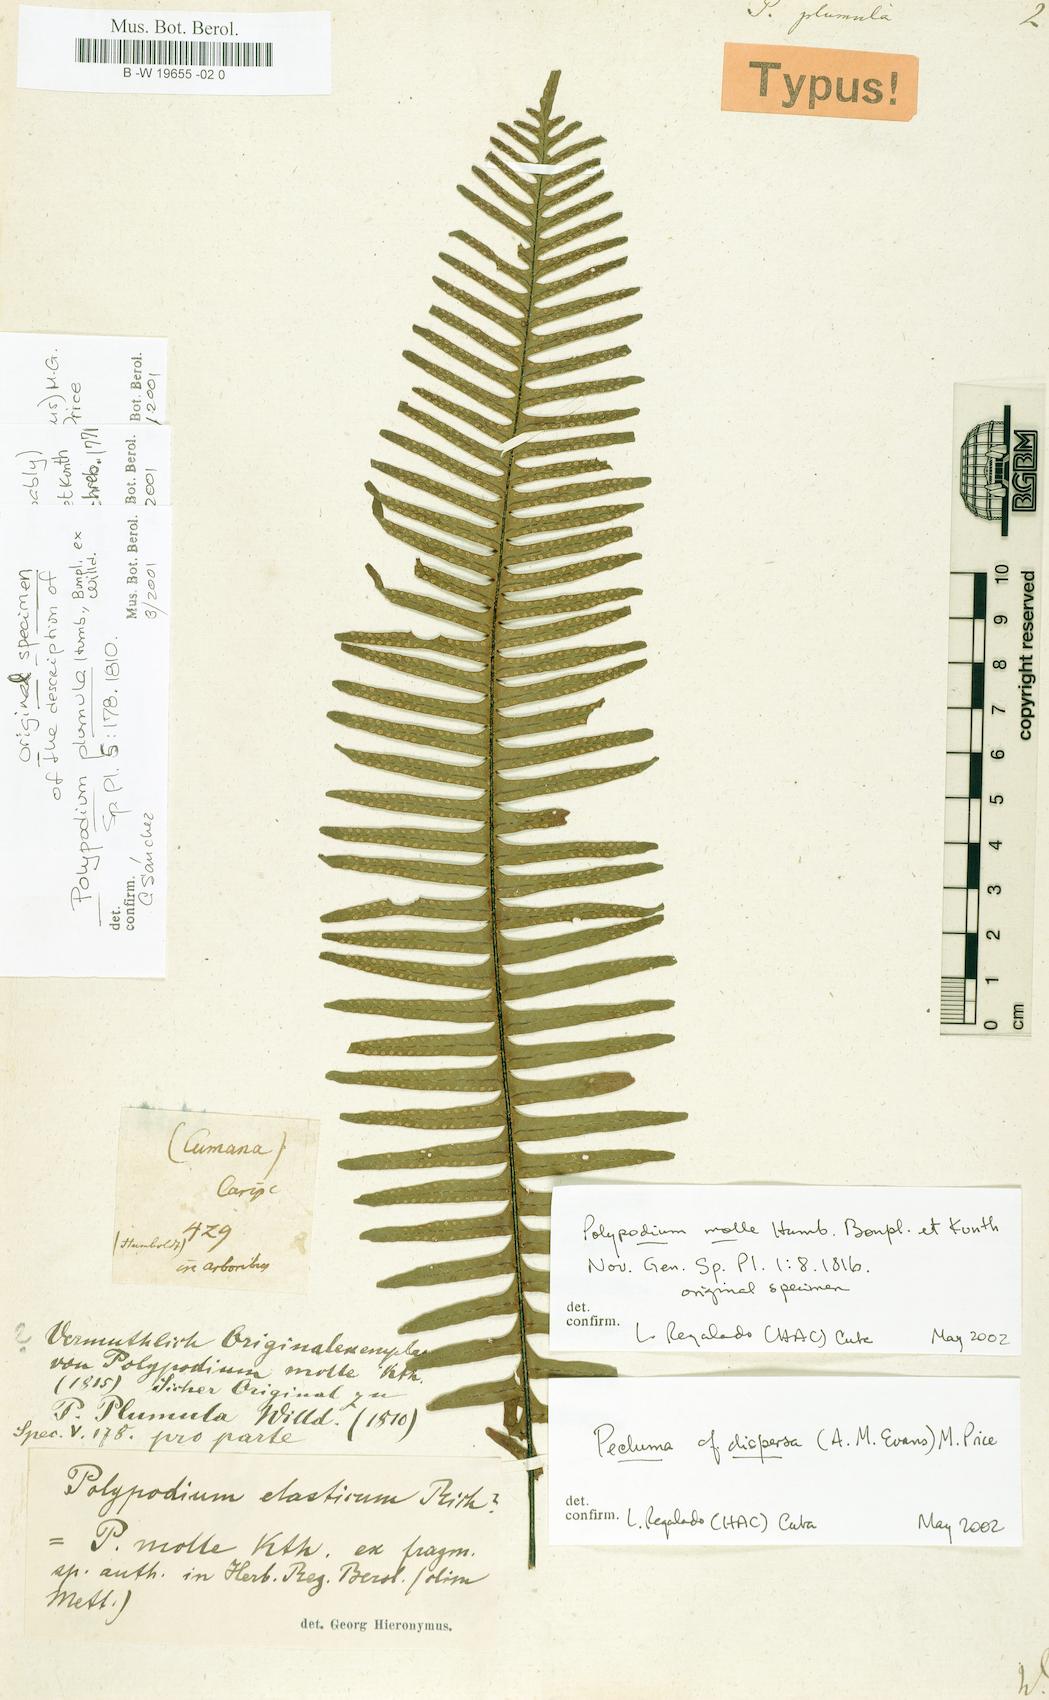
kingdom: Plantae
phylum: Tracheophyta
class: Polypodiopsida
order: Polypodiales
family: Polypodiaceae
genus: Pecluma
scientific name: Pecluma plumula
